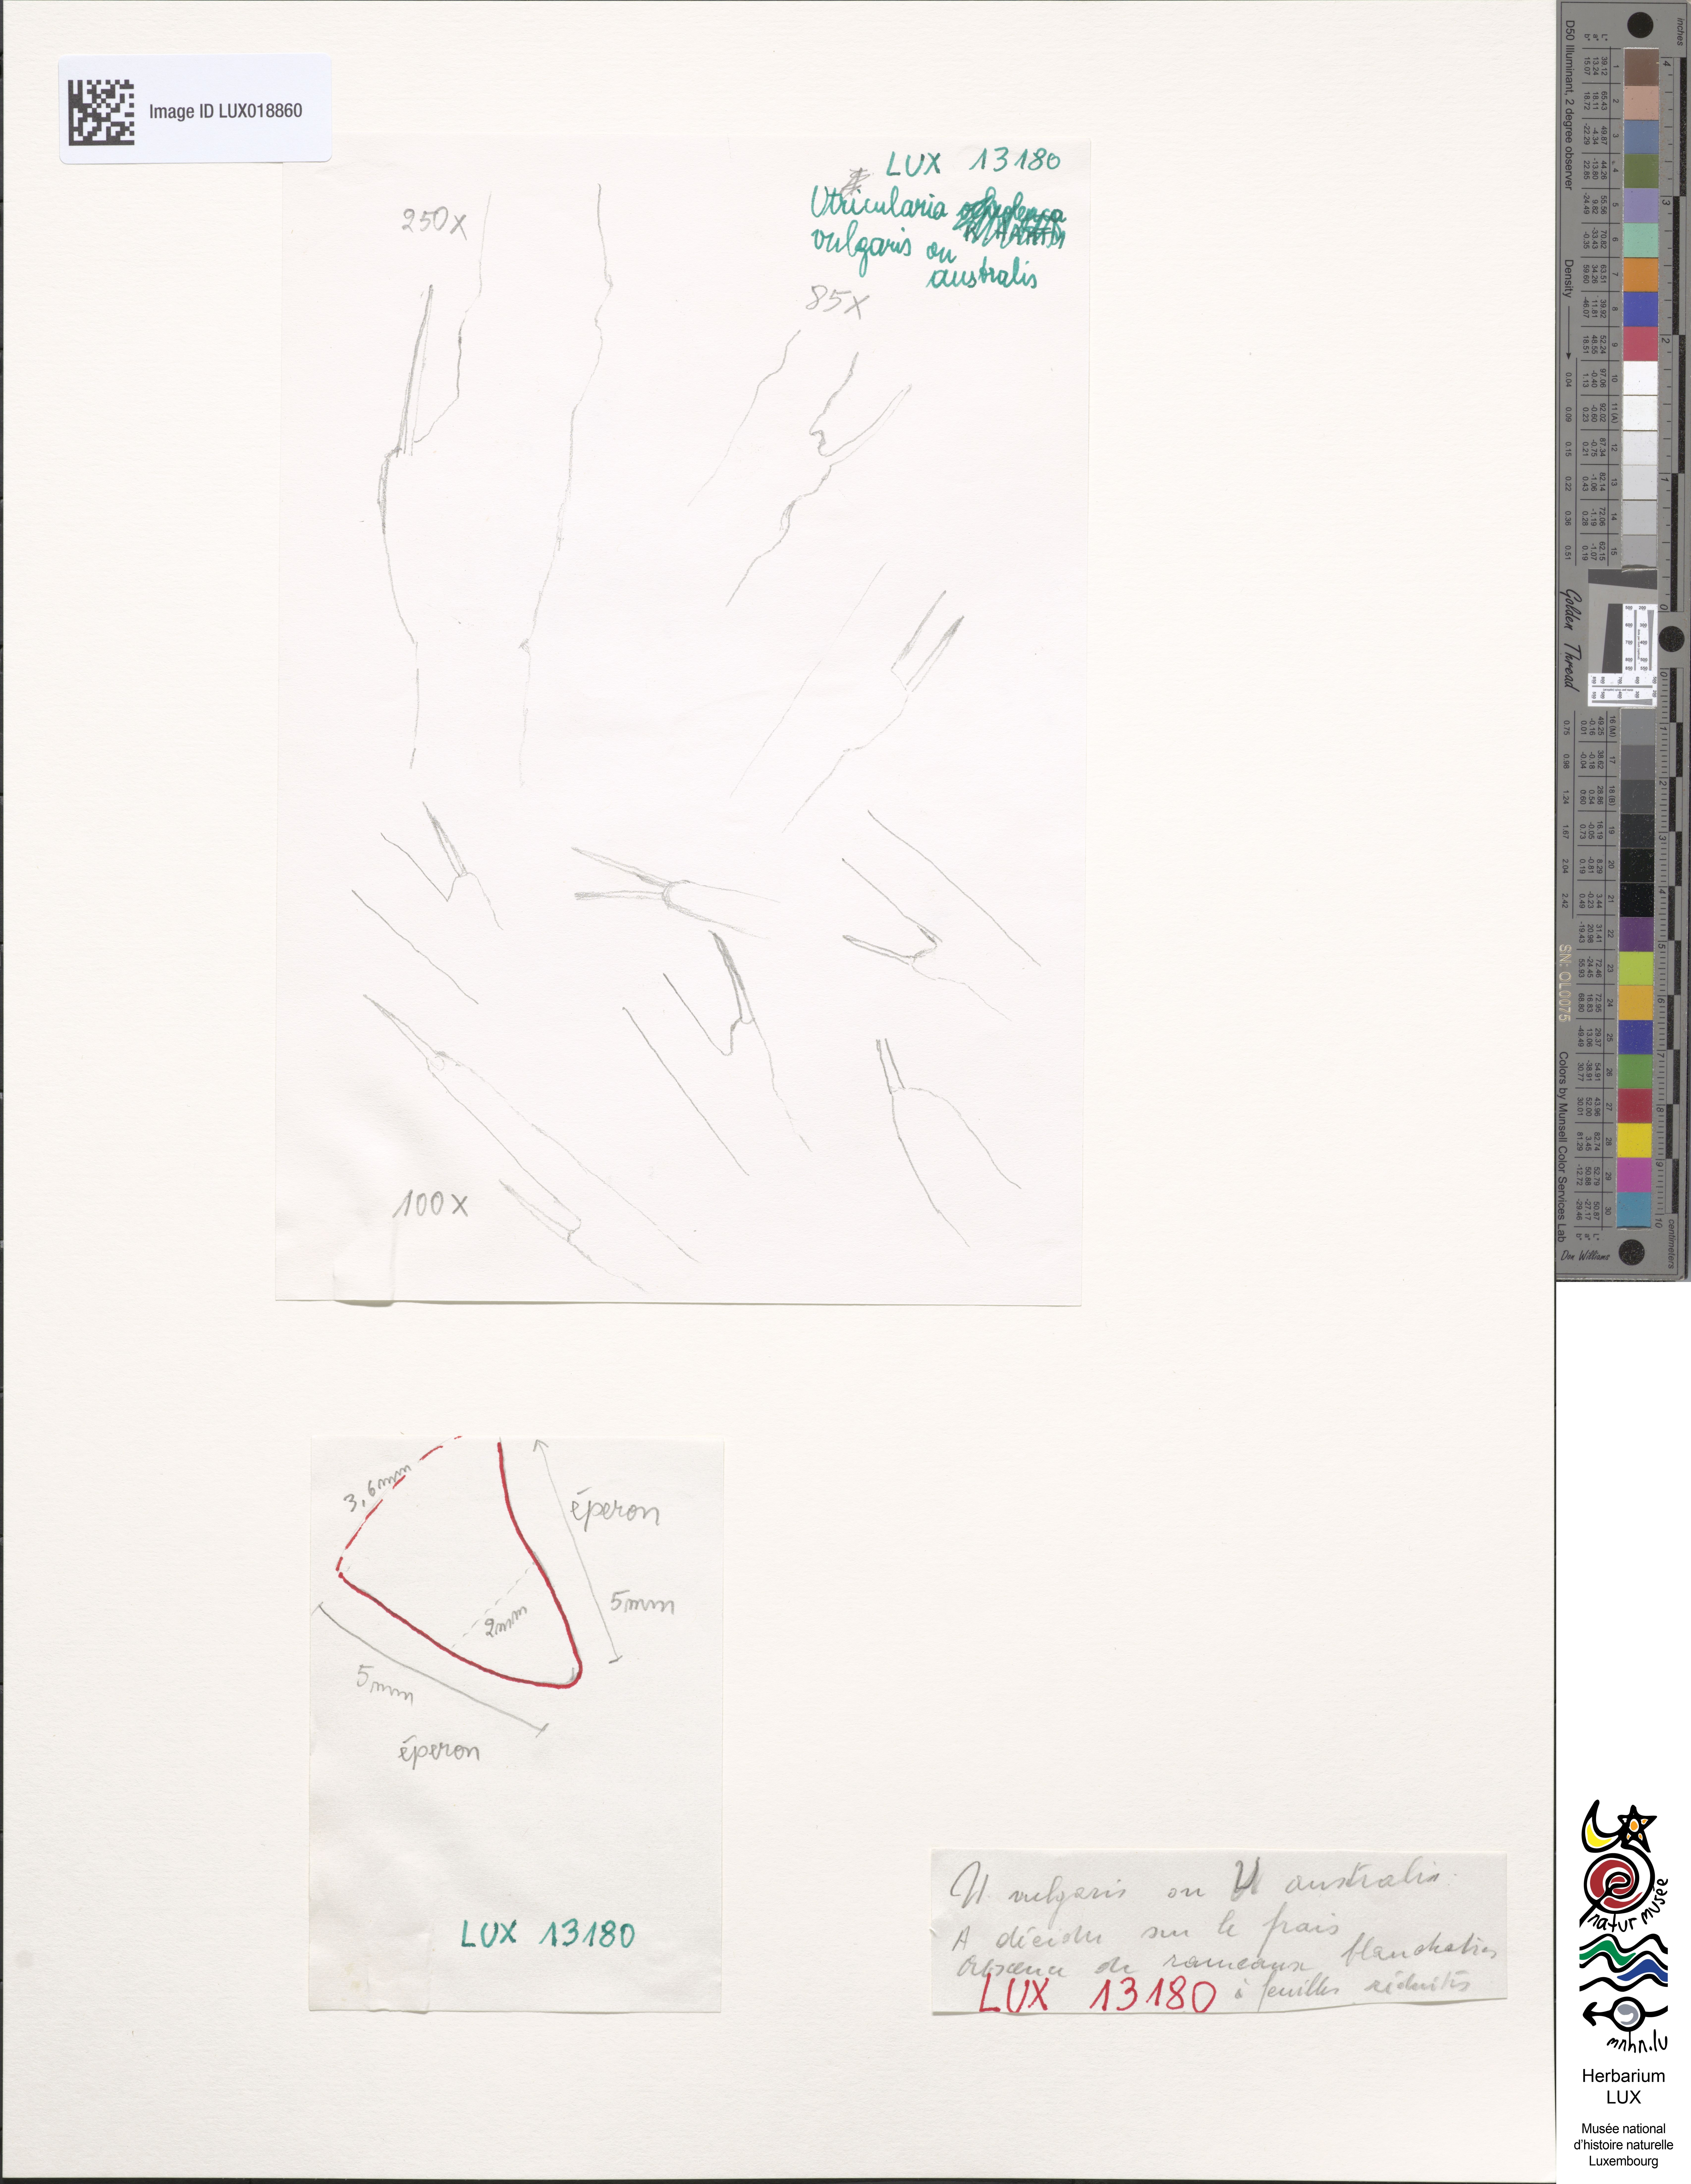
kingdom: Plantae
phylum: Tracheophyta
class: Magnoliopsida
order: Lamiales
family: Lentibulariaceae
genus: Utricularia
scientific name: Utricularia vulgaris
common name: Greater bladderwort
